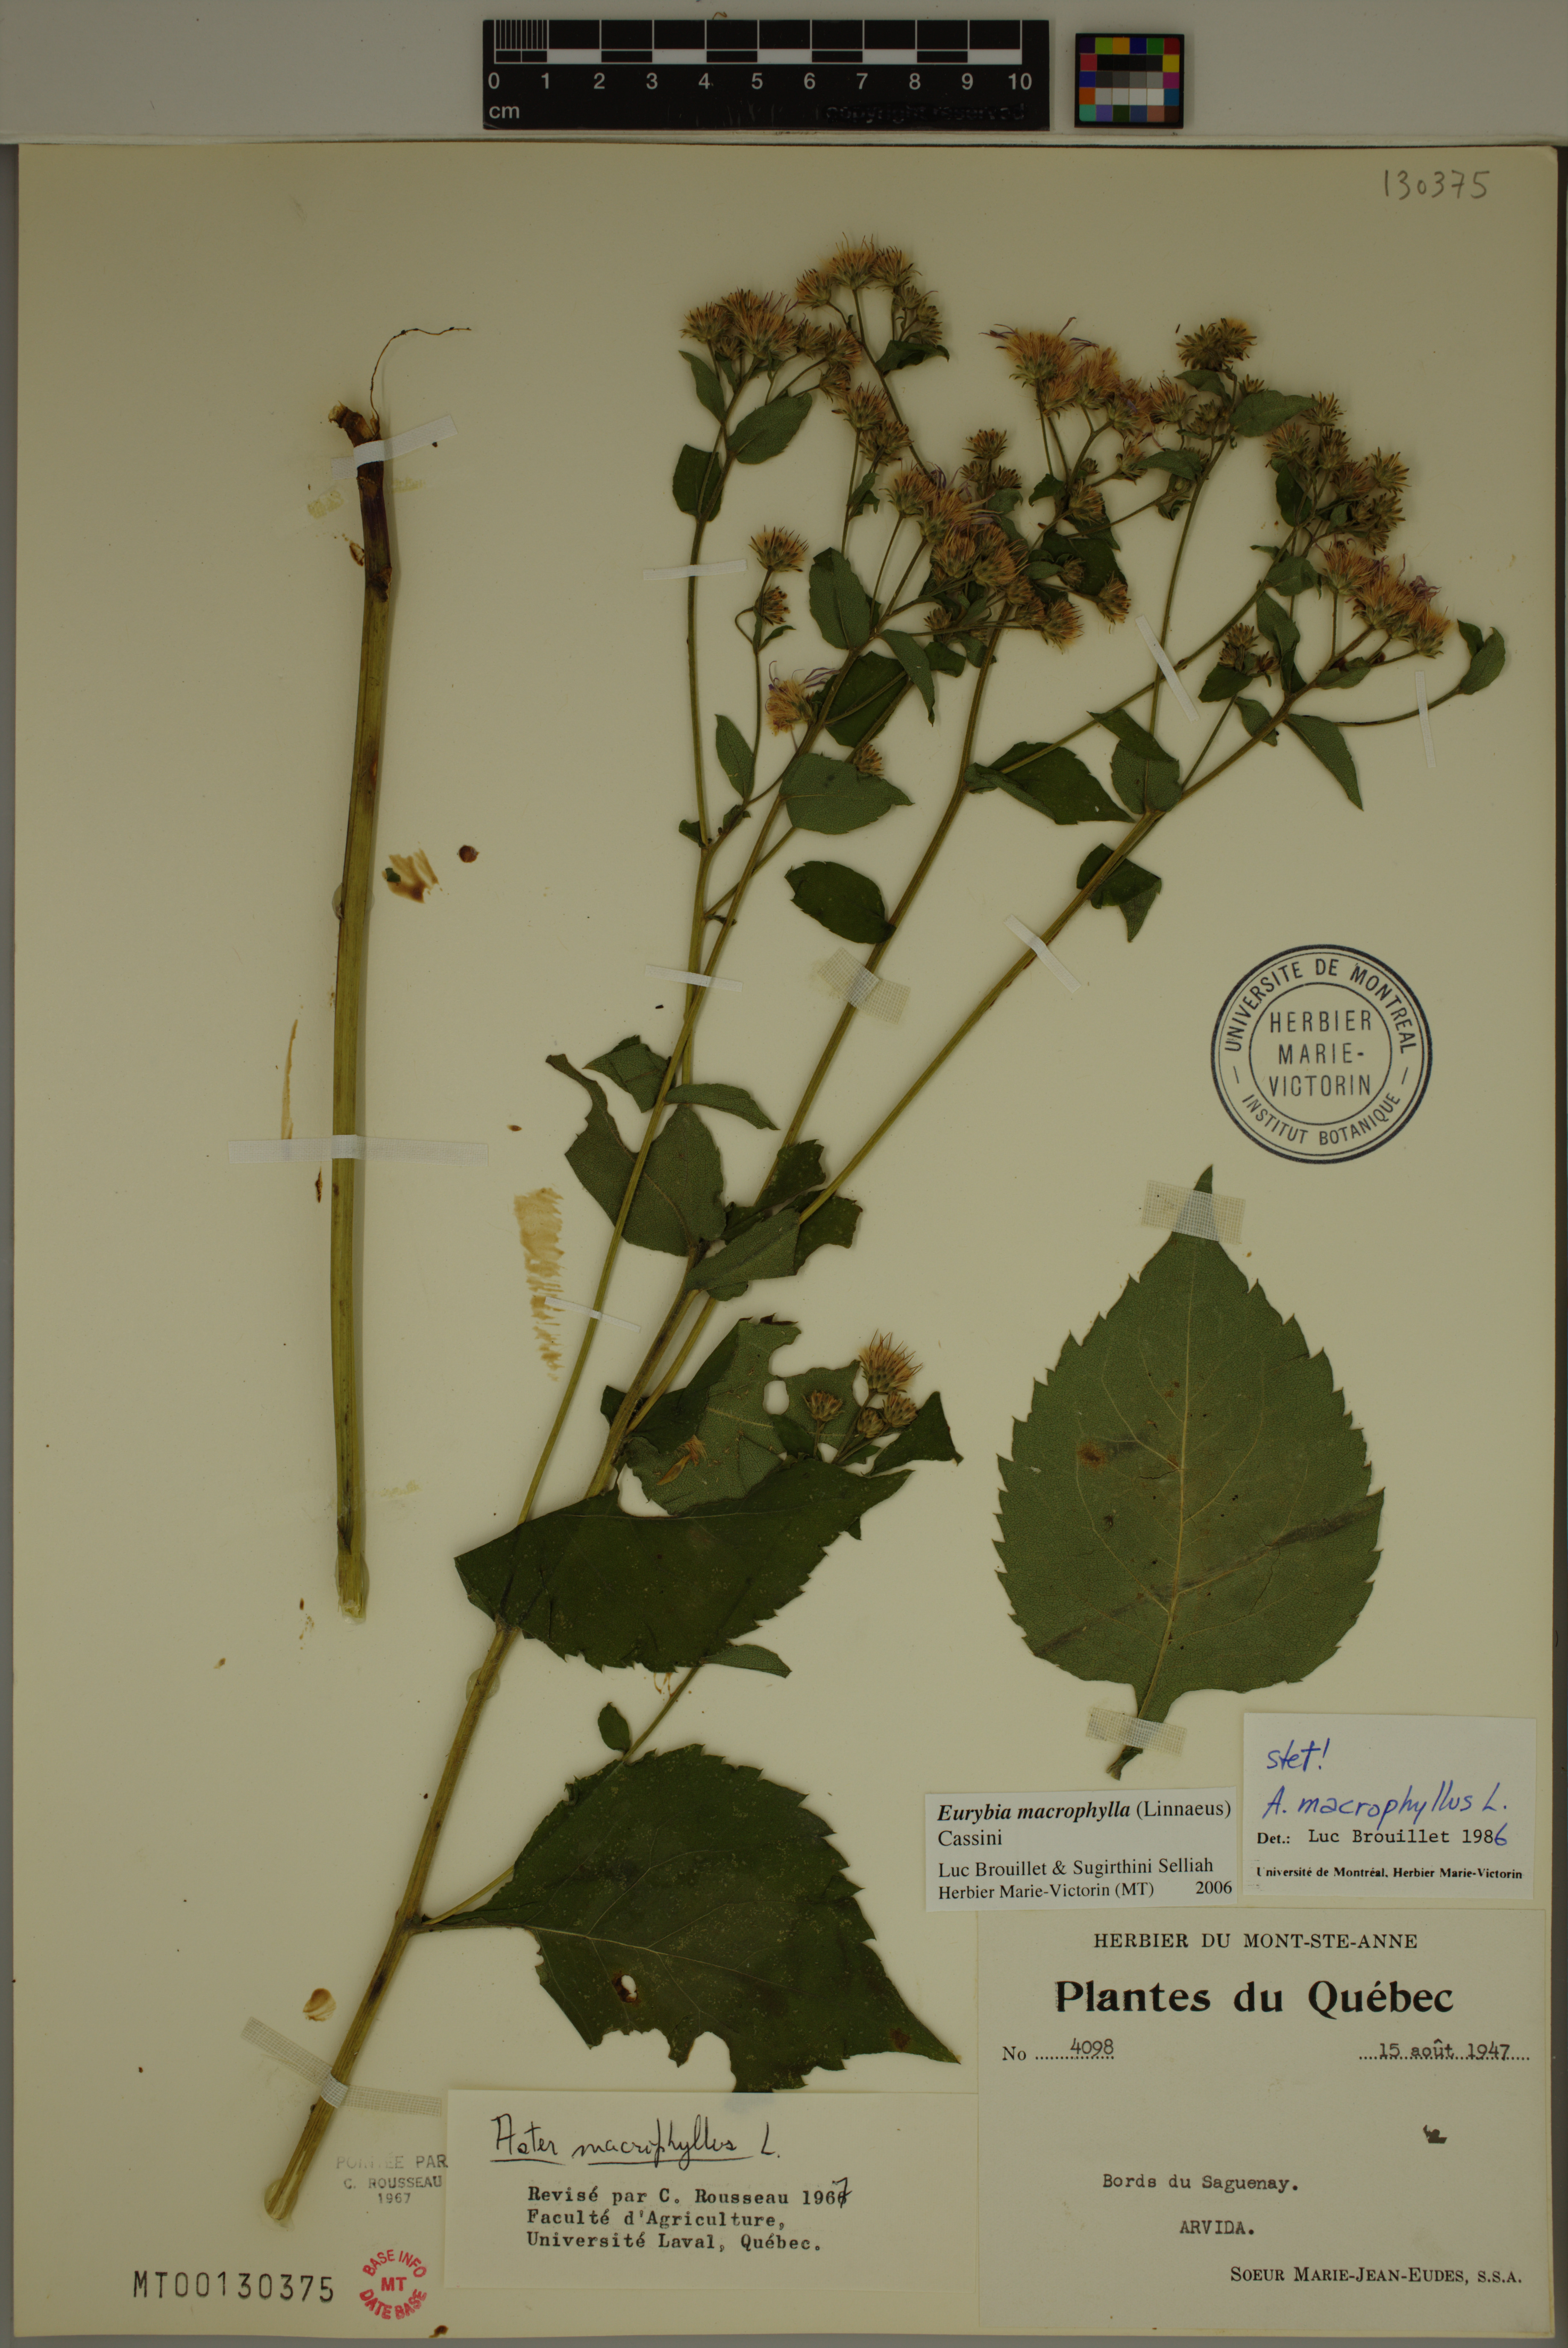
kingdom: Plantae
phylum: Tracheophyta
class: Magnoliopsida
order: Asterales
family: Asteraceae
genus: Eurybia
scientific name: Eurybia macrophylla
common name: Big-leaved aster
